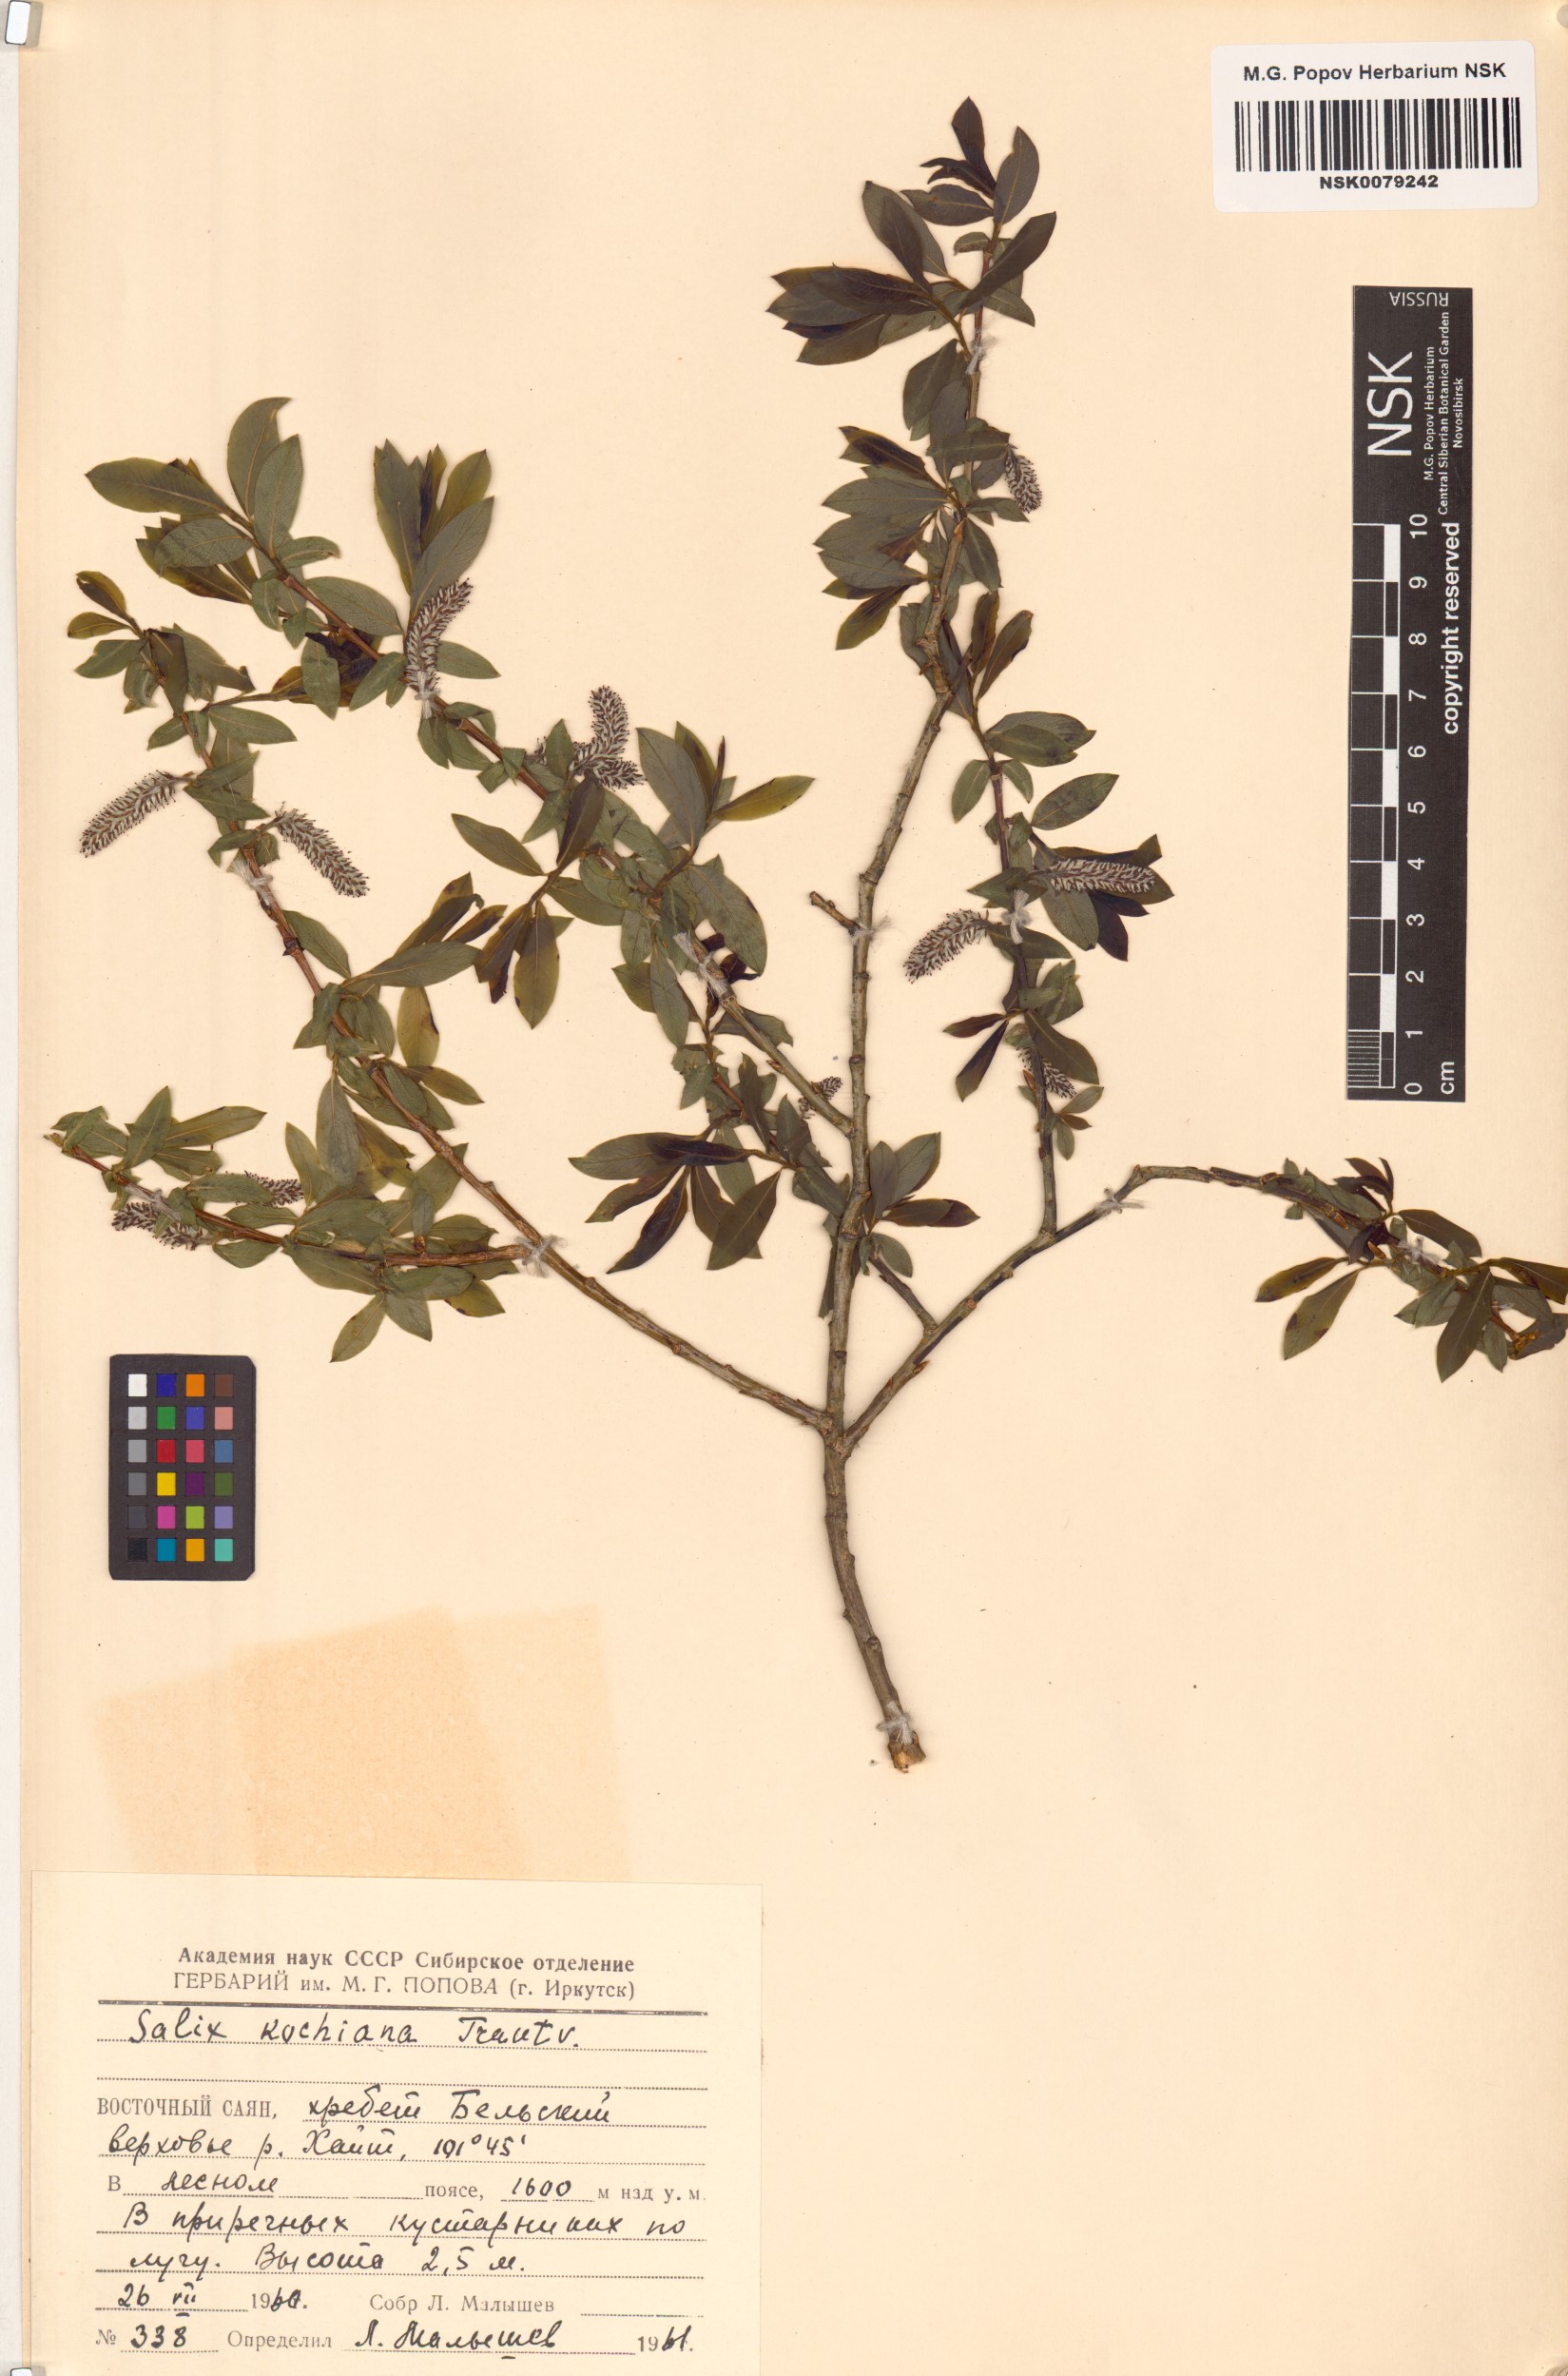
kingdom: Plantae
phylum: Tracheophyta
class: Magnoliopsida
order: Malpighiales
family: Salicaceae
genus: Salix
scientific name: Salix kochiana
